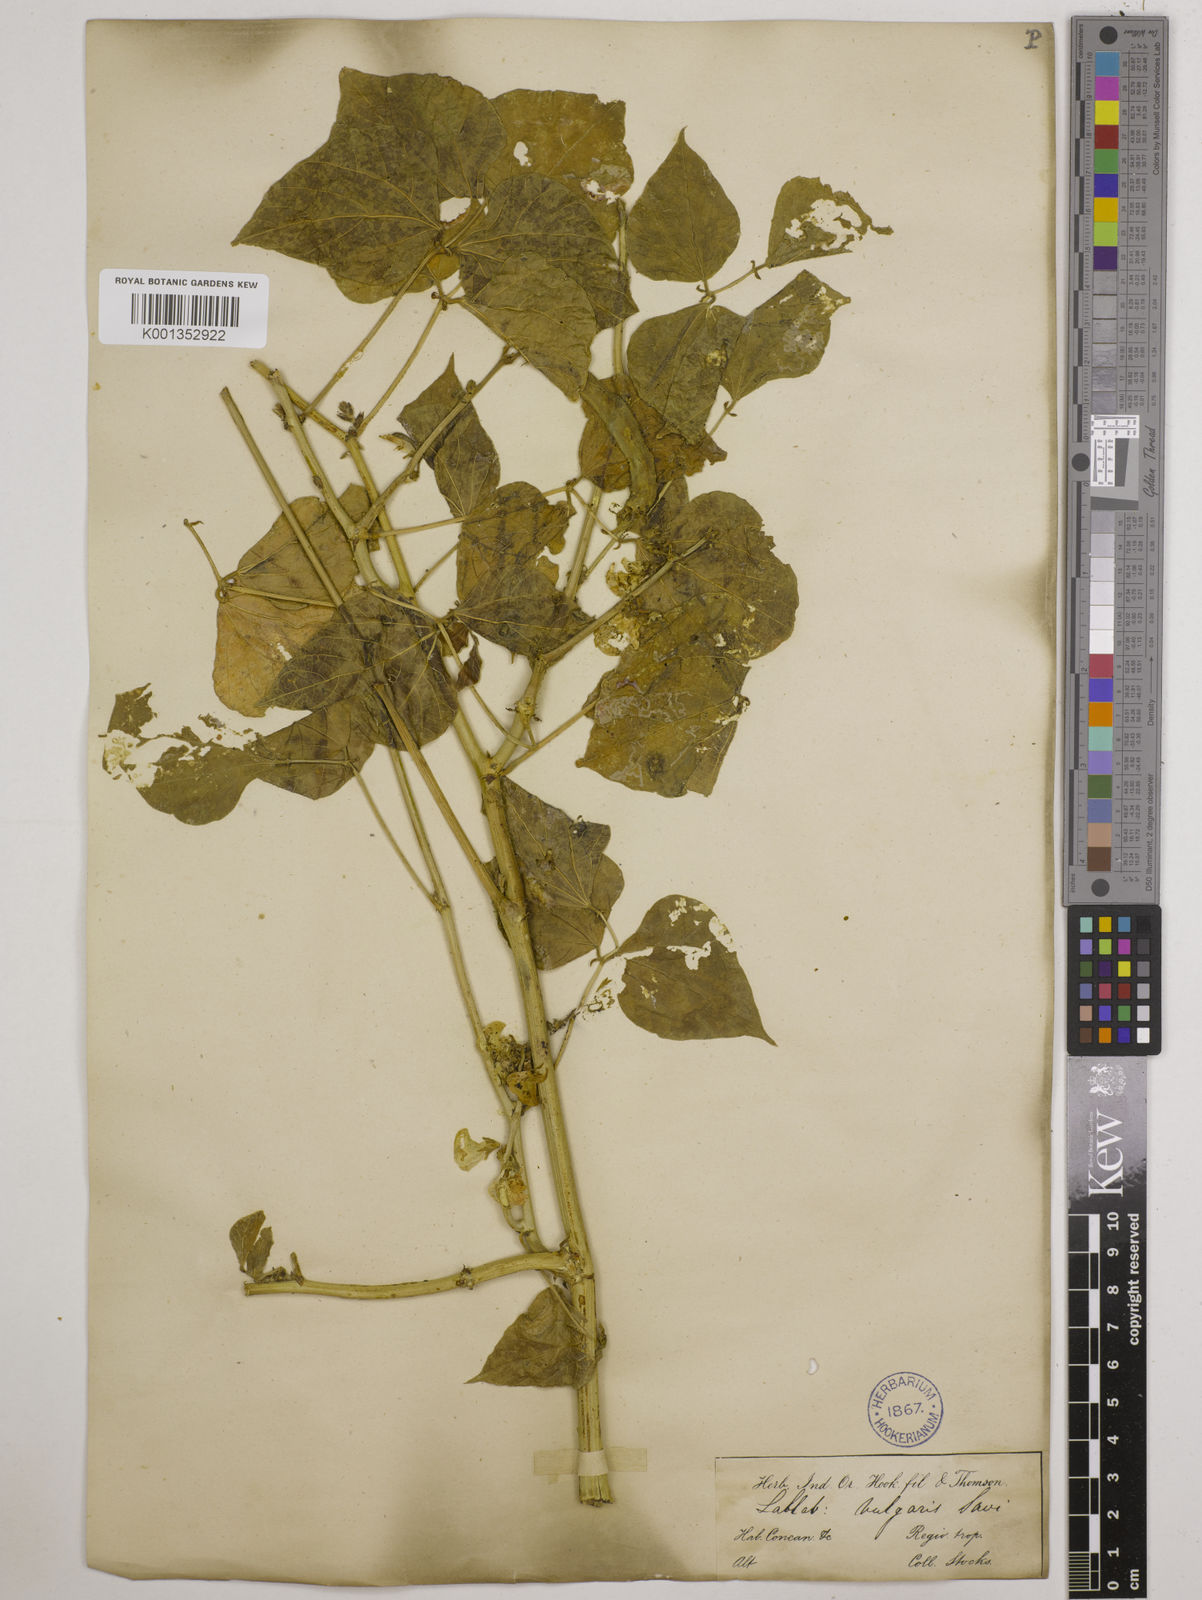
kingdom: Plantae
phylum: Tracheophyta
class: Magnoliopsida
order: Fabales
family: Fabaceae
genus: Lablab
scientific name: Lablab purpureus
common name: Lablab-bean
